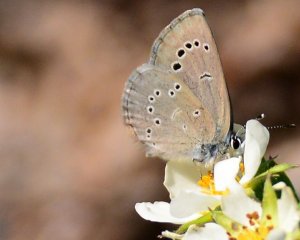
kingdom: Animalia
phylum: Arthropoda
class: Insecta
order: Lepidoptera
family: Lycaenidae
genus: Glaucopsyche
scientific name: Glaucopsyche lygdamus
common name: Silvery Blue
